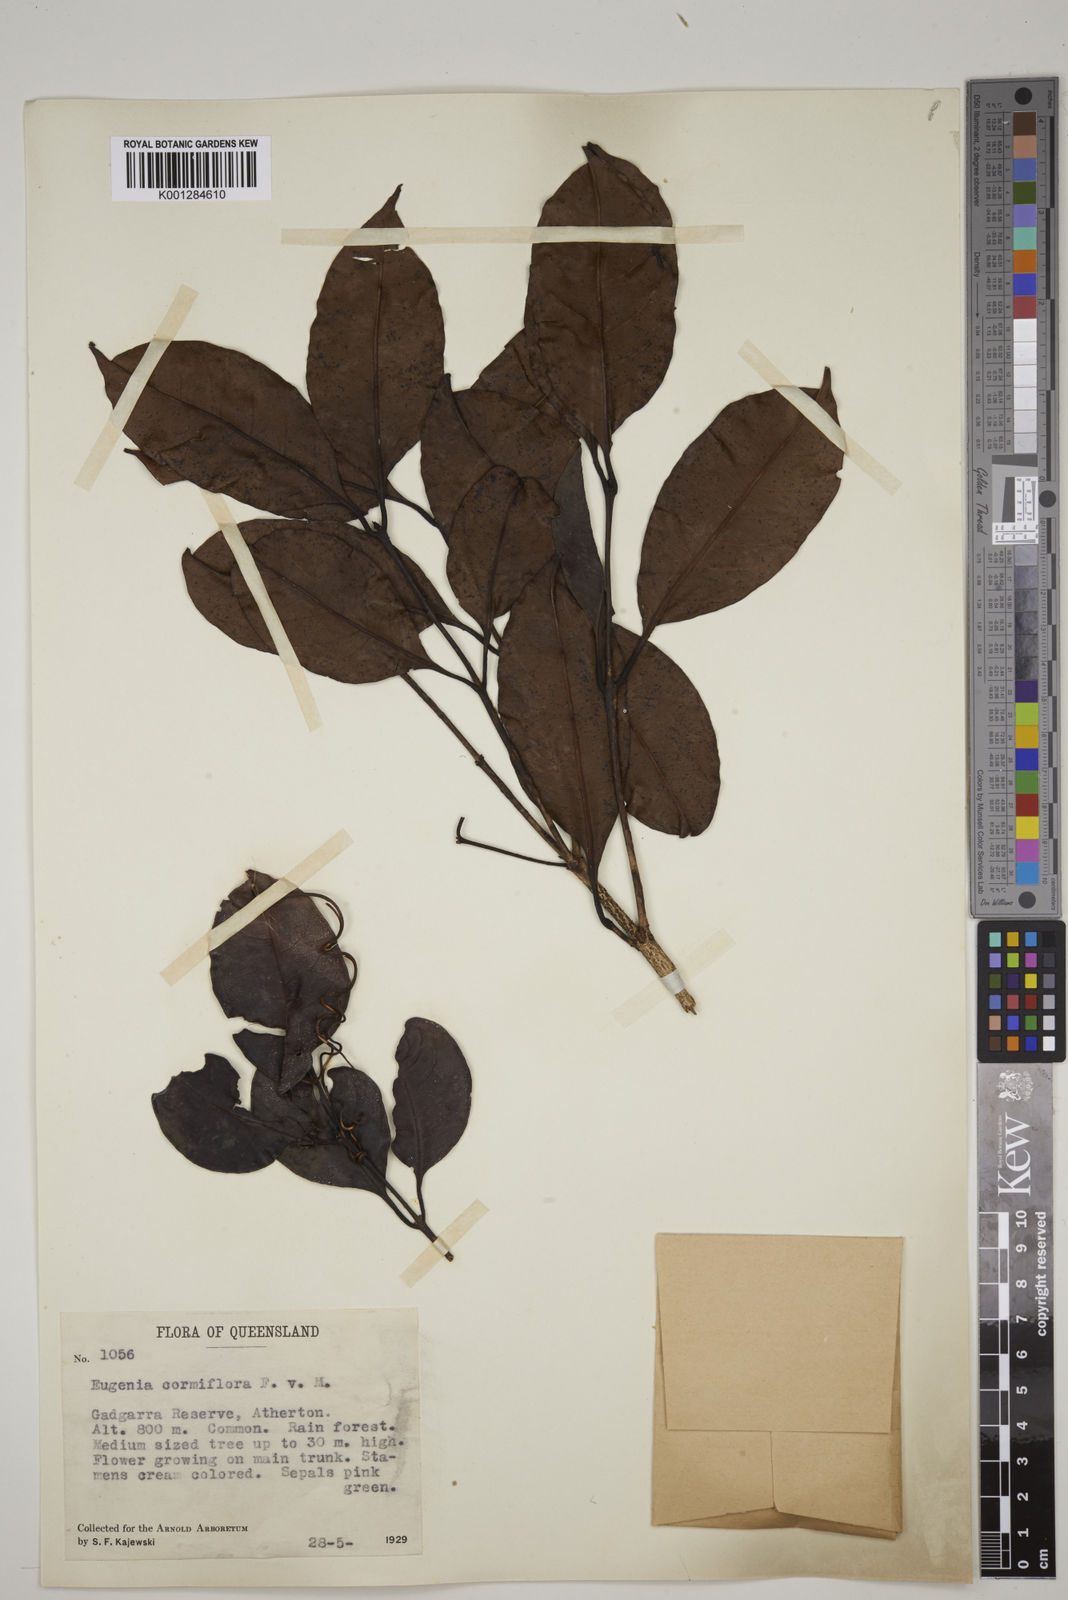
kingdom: Plantae
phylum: Tracheophyta
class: Magnoliopsida
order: Myrtales
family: Myrtaceae
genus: Syzygium
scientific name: Syzygium cormiflorum
